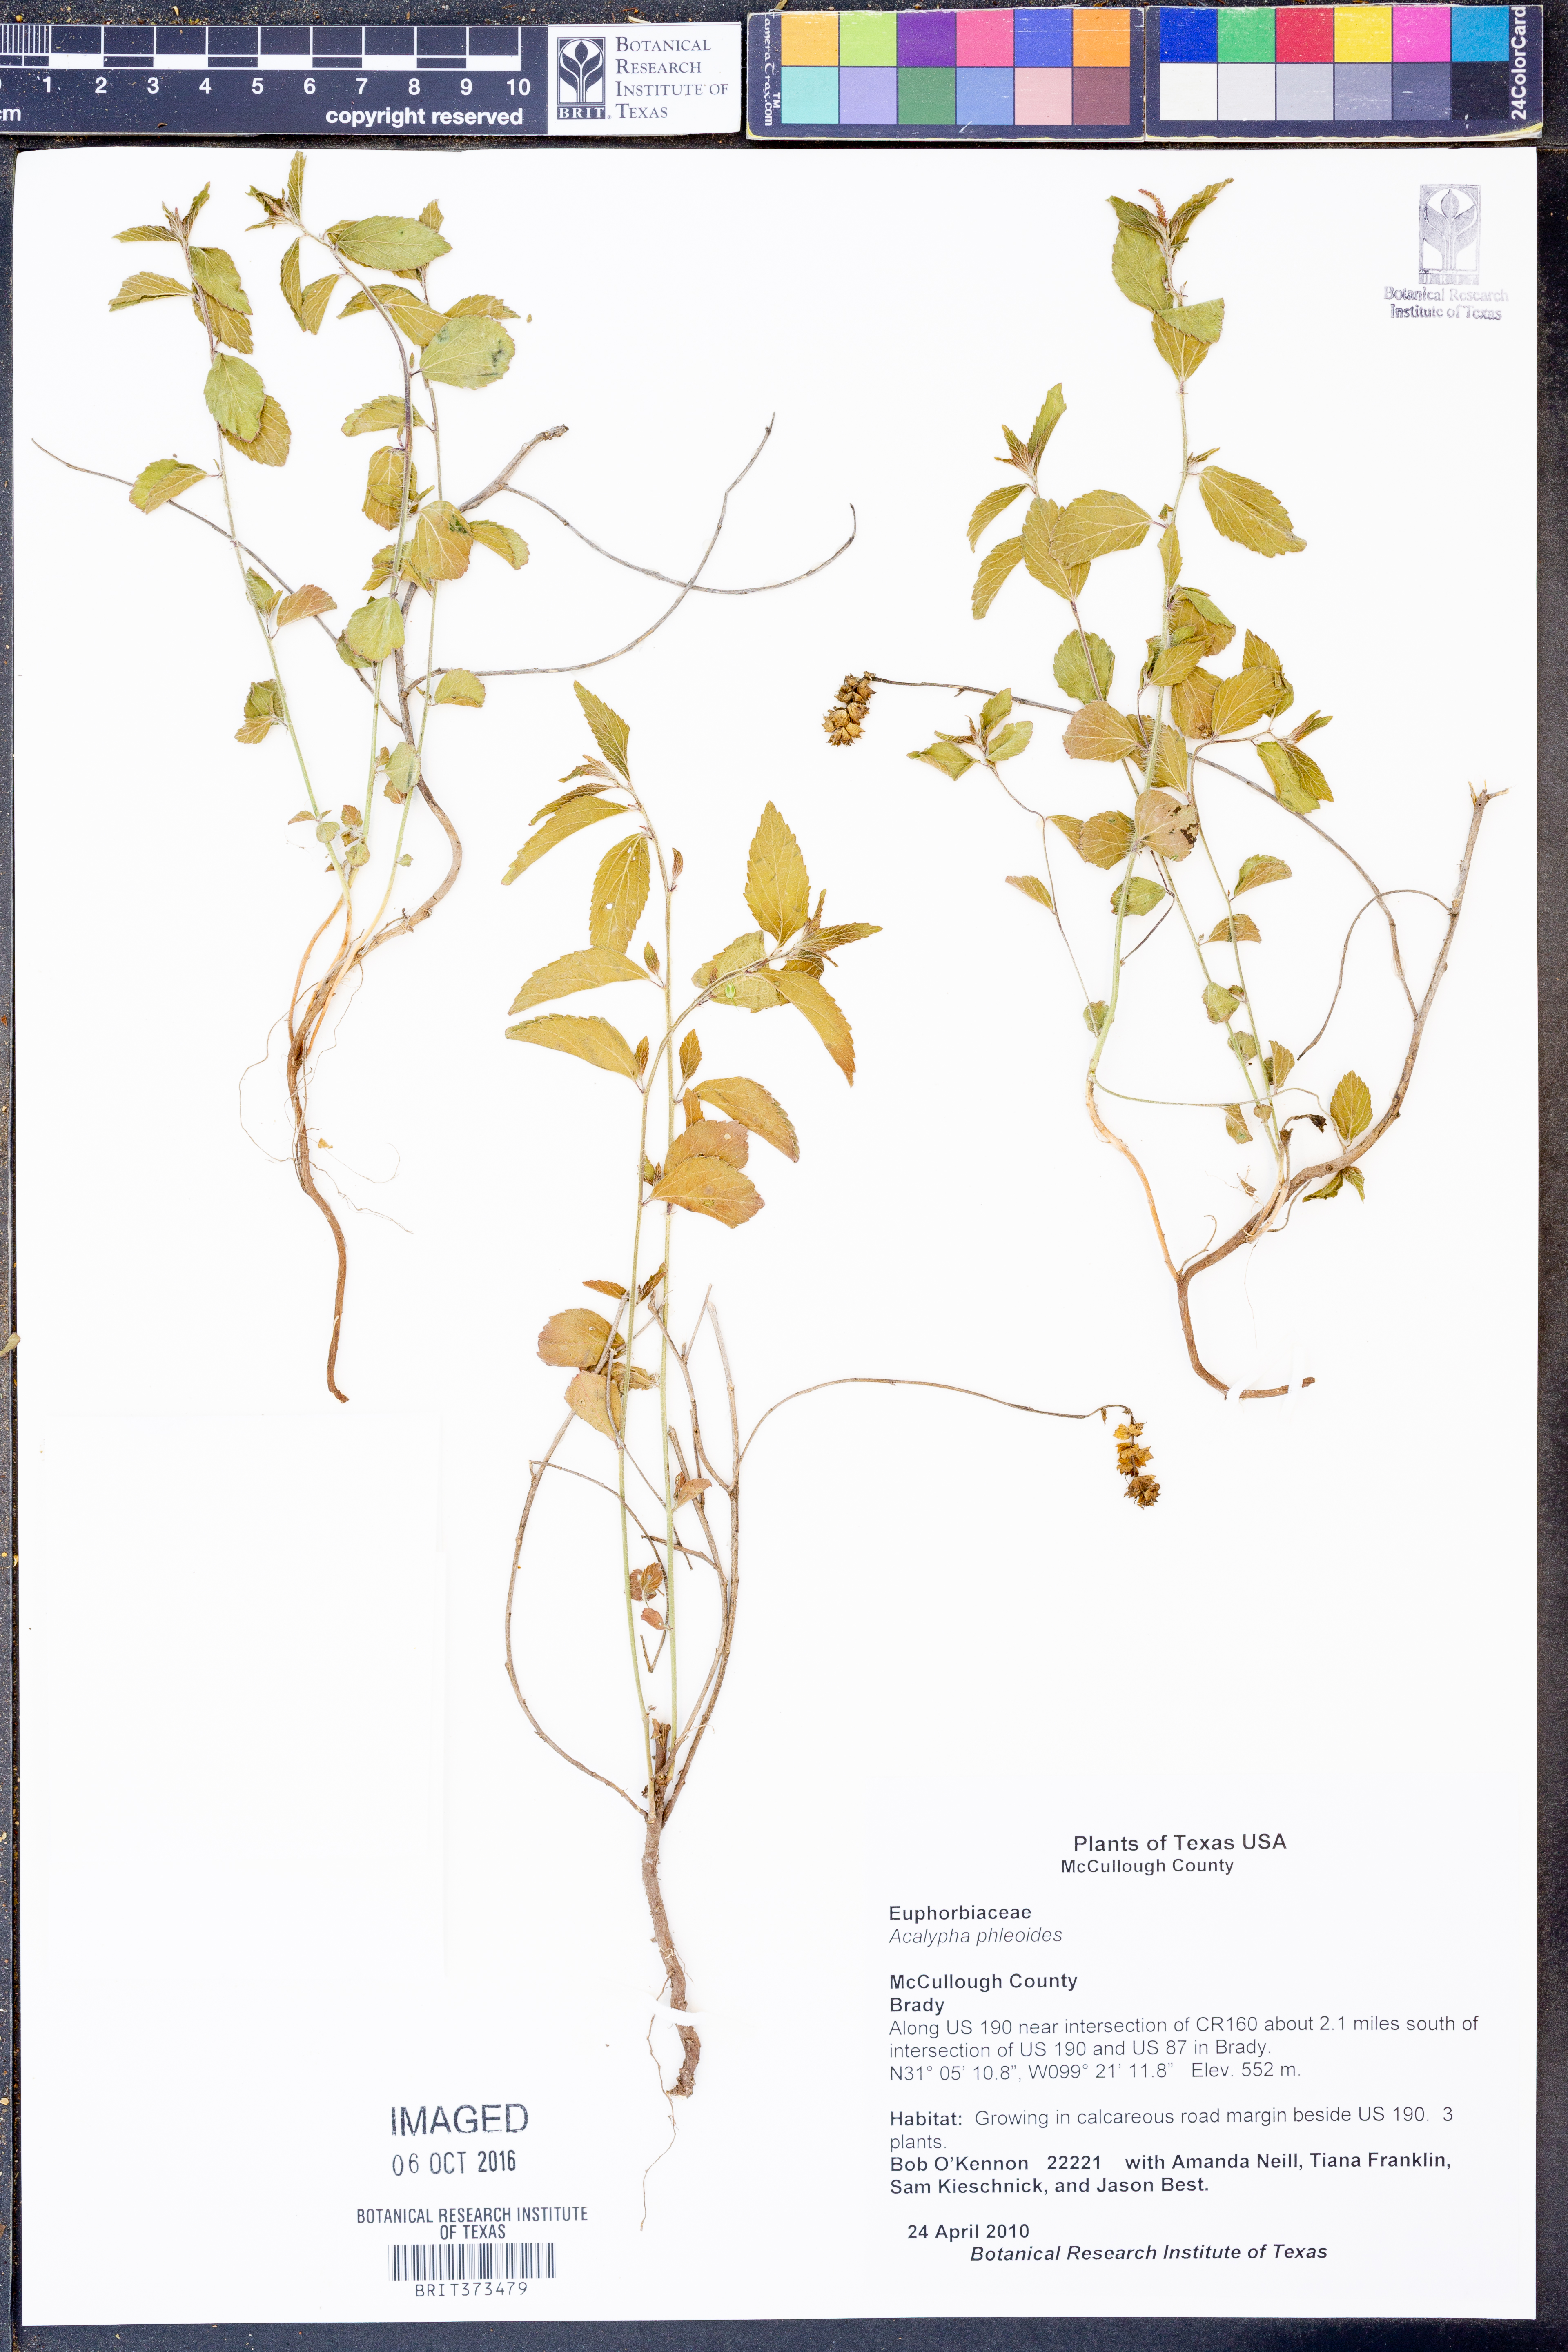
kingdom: Plantae
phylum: Tracheophyta
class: Magnoliopsida
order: Malpighiales
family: Euphorbiaceae
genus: Acalypha
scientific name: Acalypha phleoides
